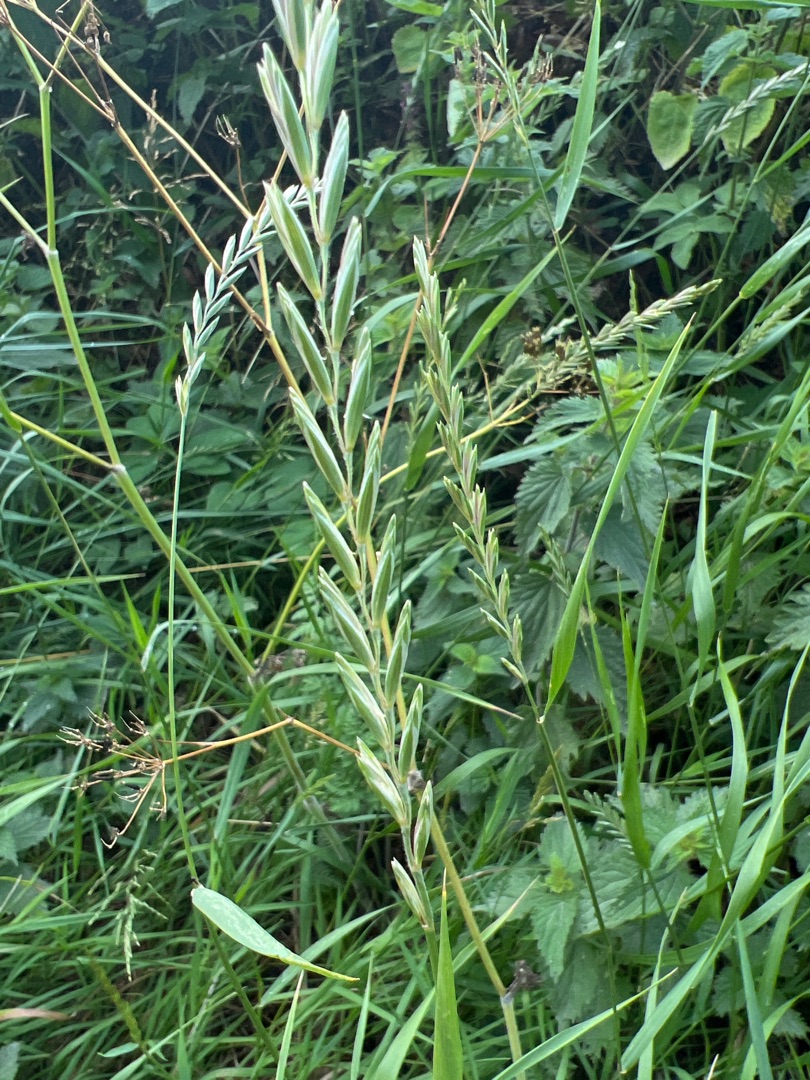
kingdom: Plantae
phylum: Tracheophyta
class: Liliopsida
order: Poales
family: Poaceae
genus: Elymus
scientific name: Elymus repens
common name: Almindelig kvik
